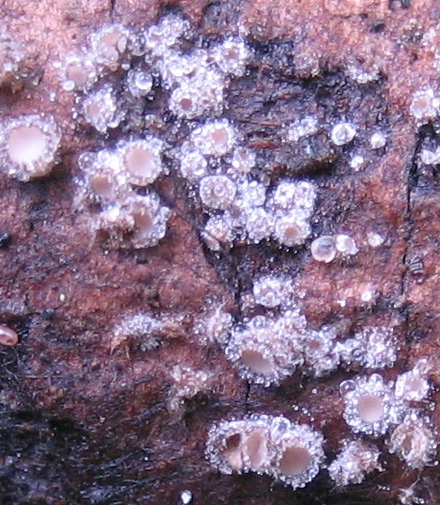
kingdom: Fungi
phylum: Ascomycota
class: Leotiomycetes
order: Helotiales
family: Solenopeziaceae
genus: Lasiobelonium
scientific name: Lasiobelonium
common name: frynseskive
